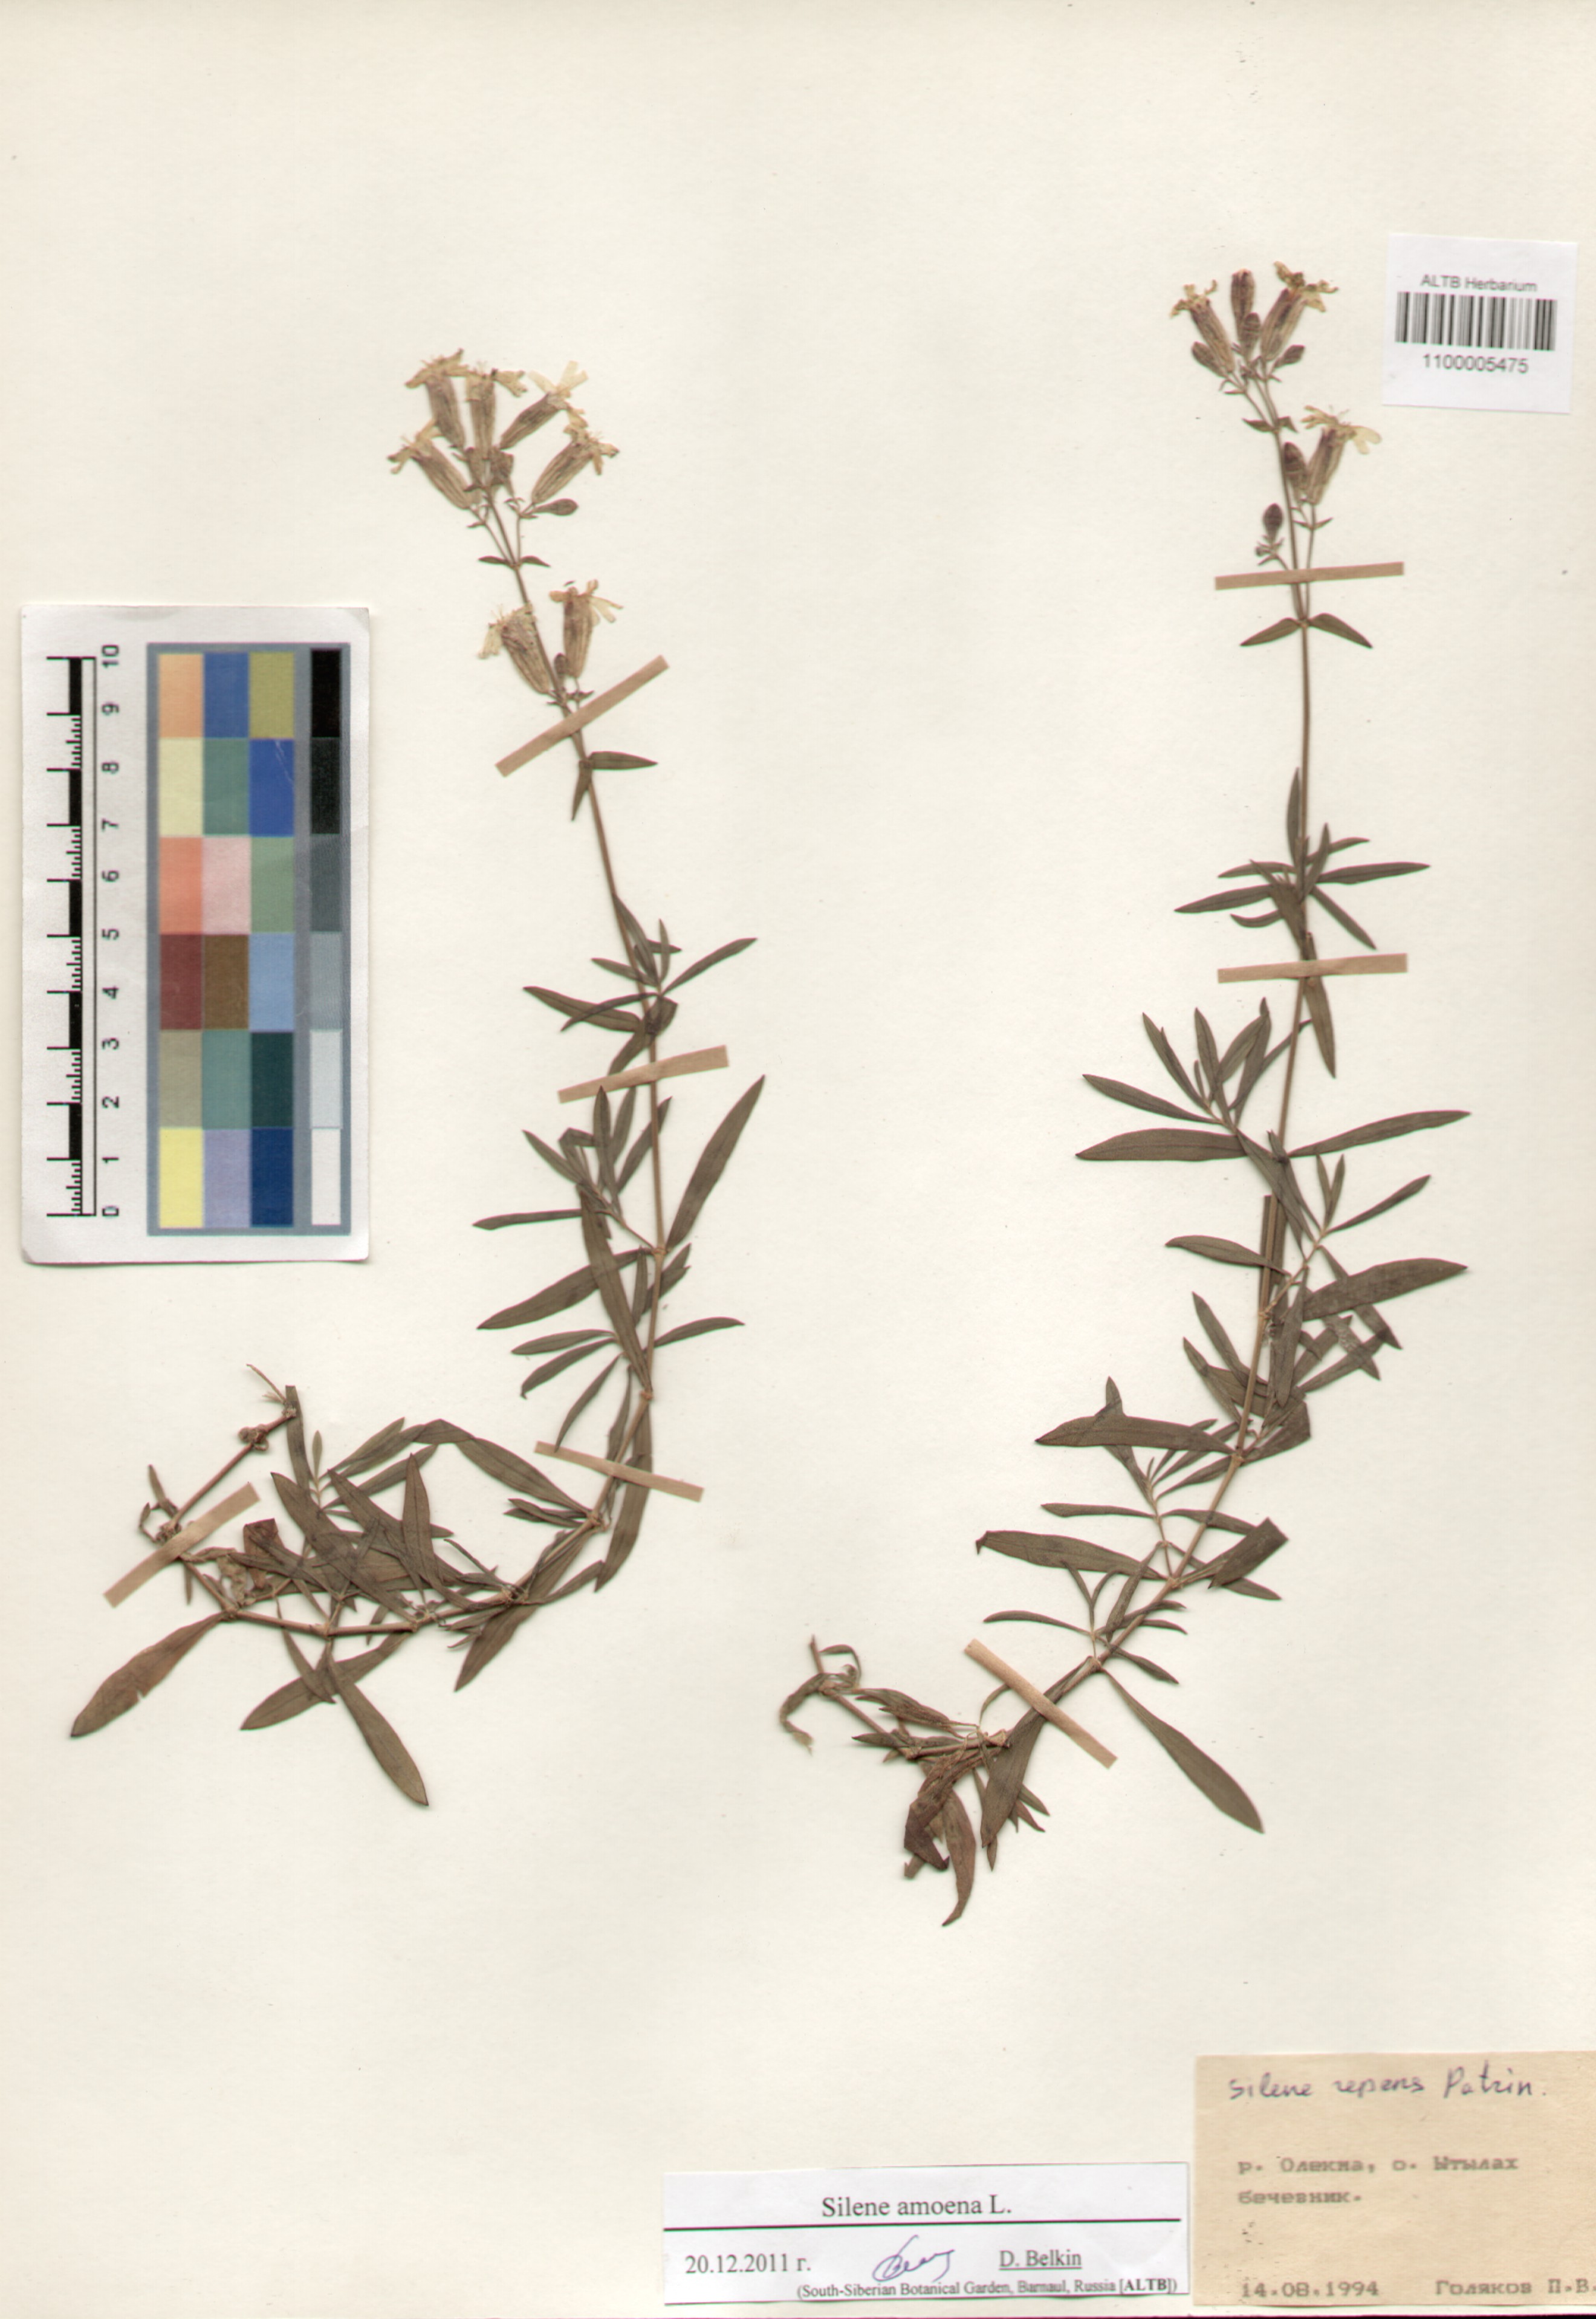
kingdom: Plantae
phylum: Tracheophyta
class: Magnoliopsida
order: Caryophyllales
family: Caryophyllaceae
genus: Silene
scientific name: Silene amoena
